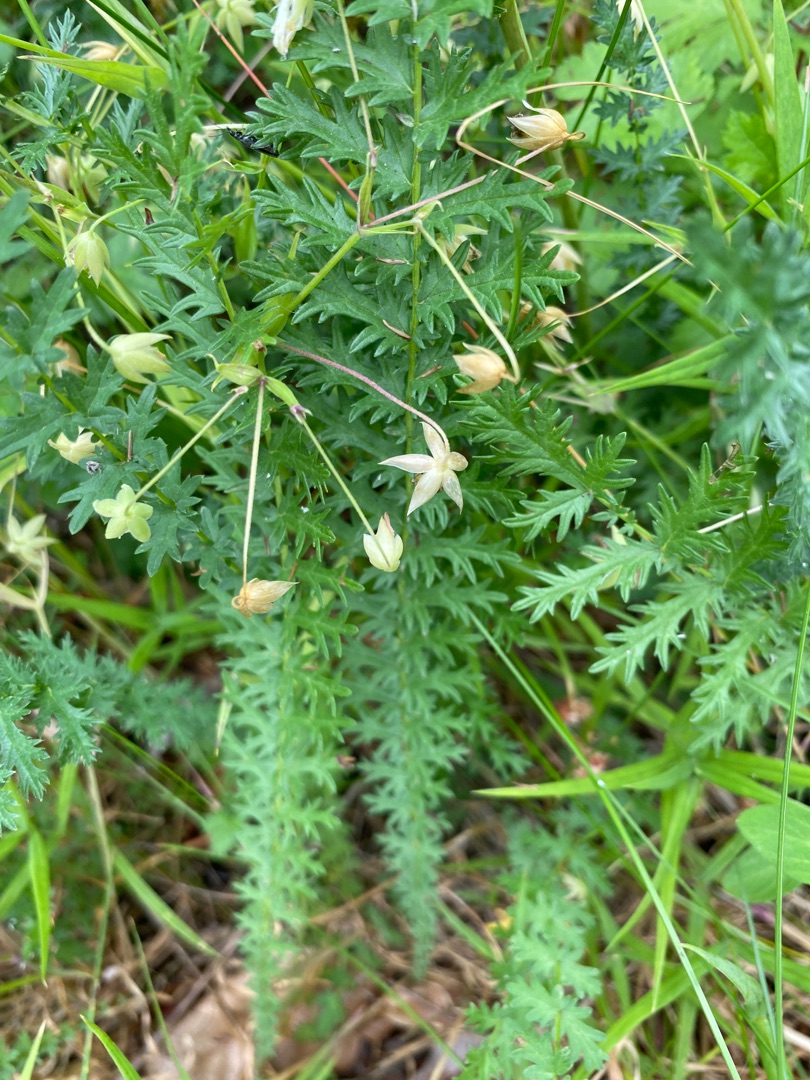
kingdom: Plantae
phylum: Tracheophyta
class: Magnoliopsida
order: Rosales
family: Rosaceae
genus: Filipendula
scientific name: Filipendula vulgaris
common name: Knoldet mjødurt
